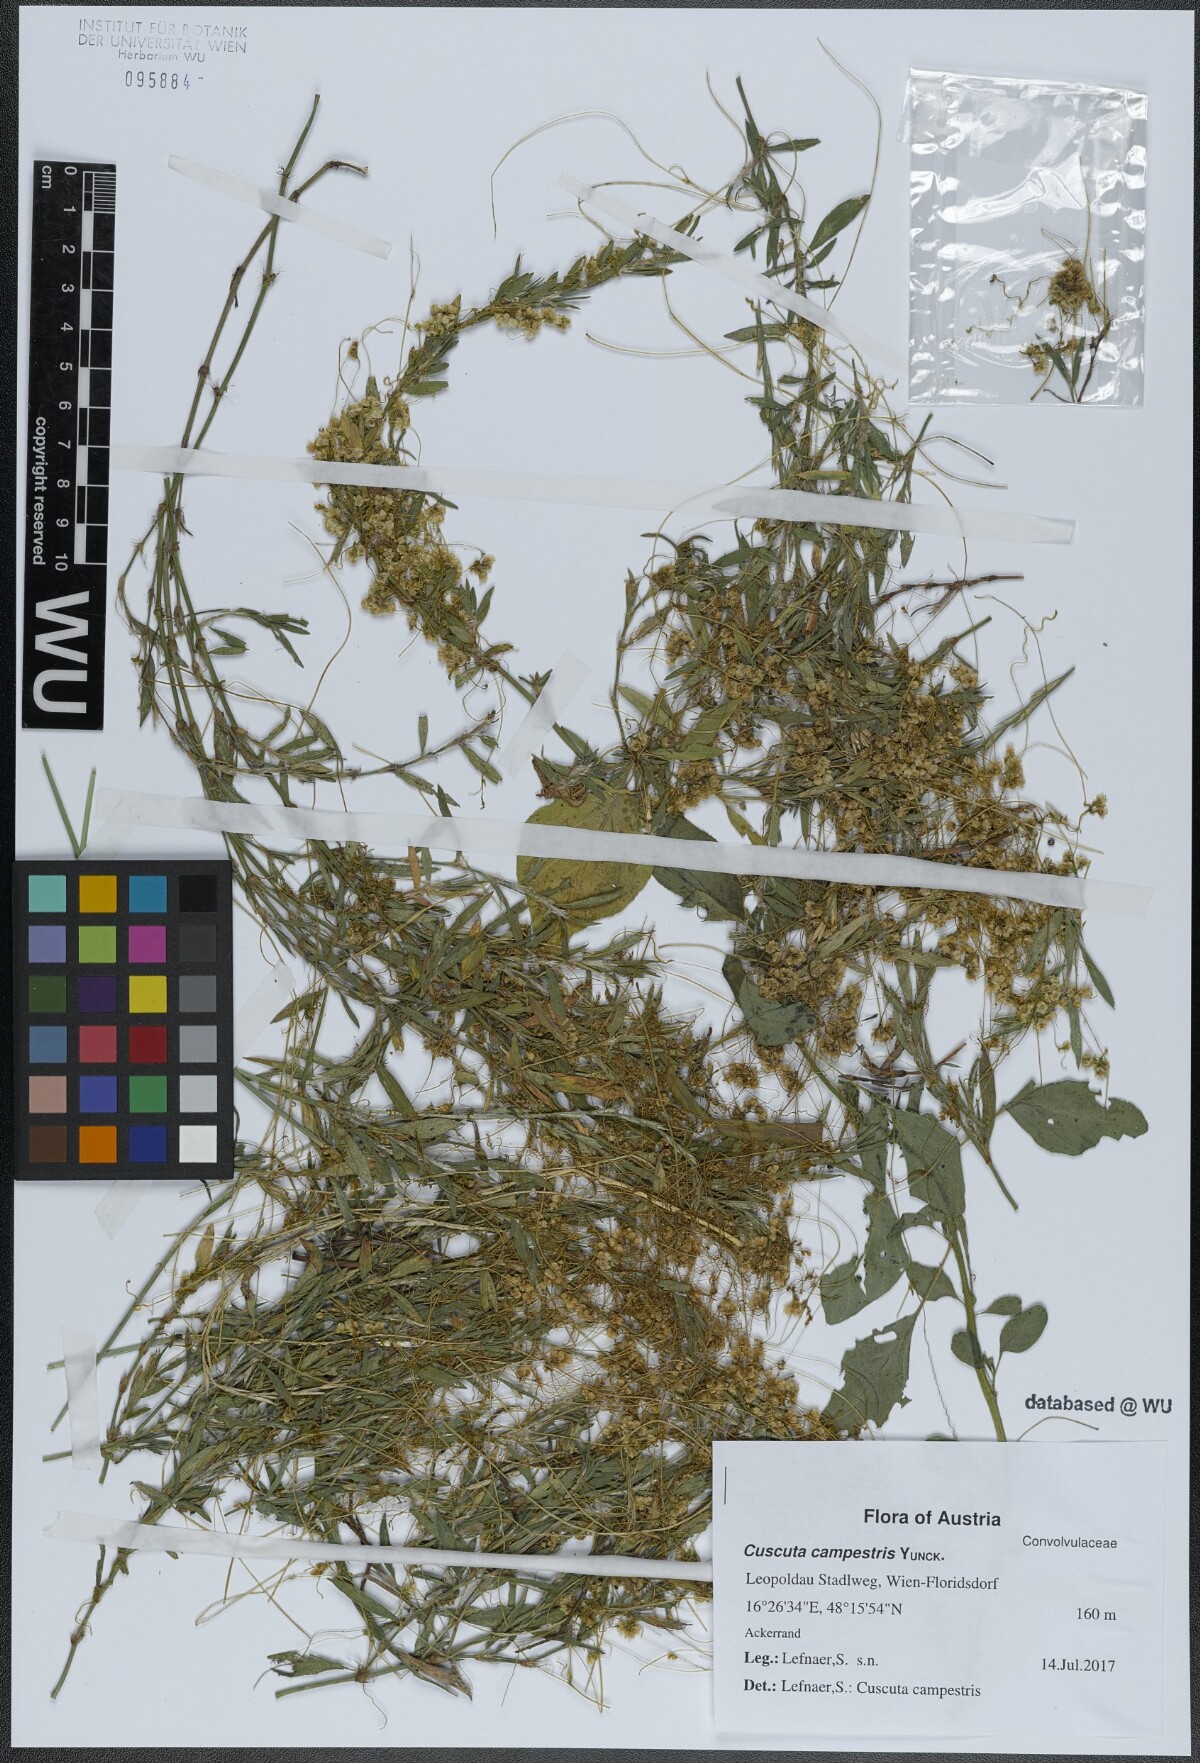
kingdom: Plantae
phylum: Tracheophyta
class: Magnoliopsida
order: Solanales
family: Convolvulaceae
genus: Cuscuta
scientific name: Cuscuta campestris
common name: Yellow dodder
